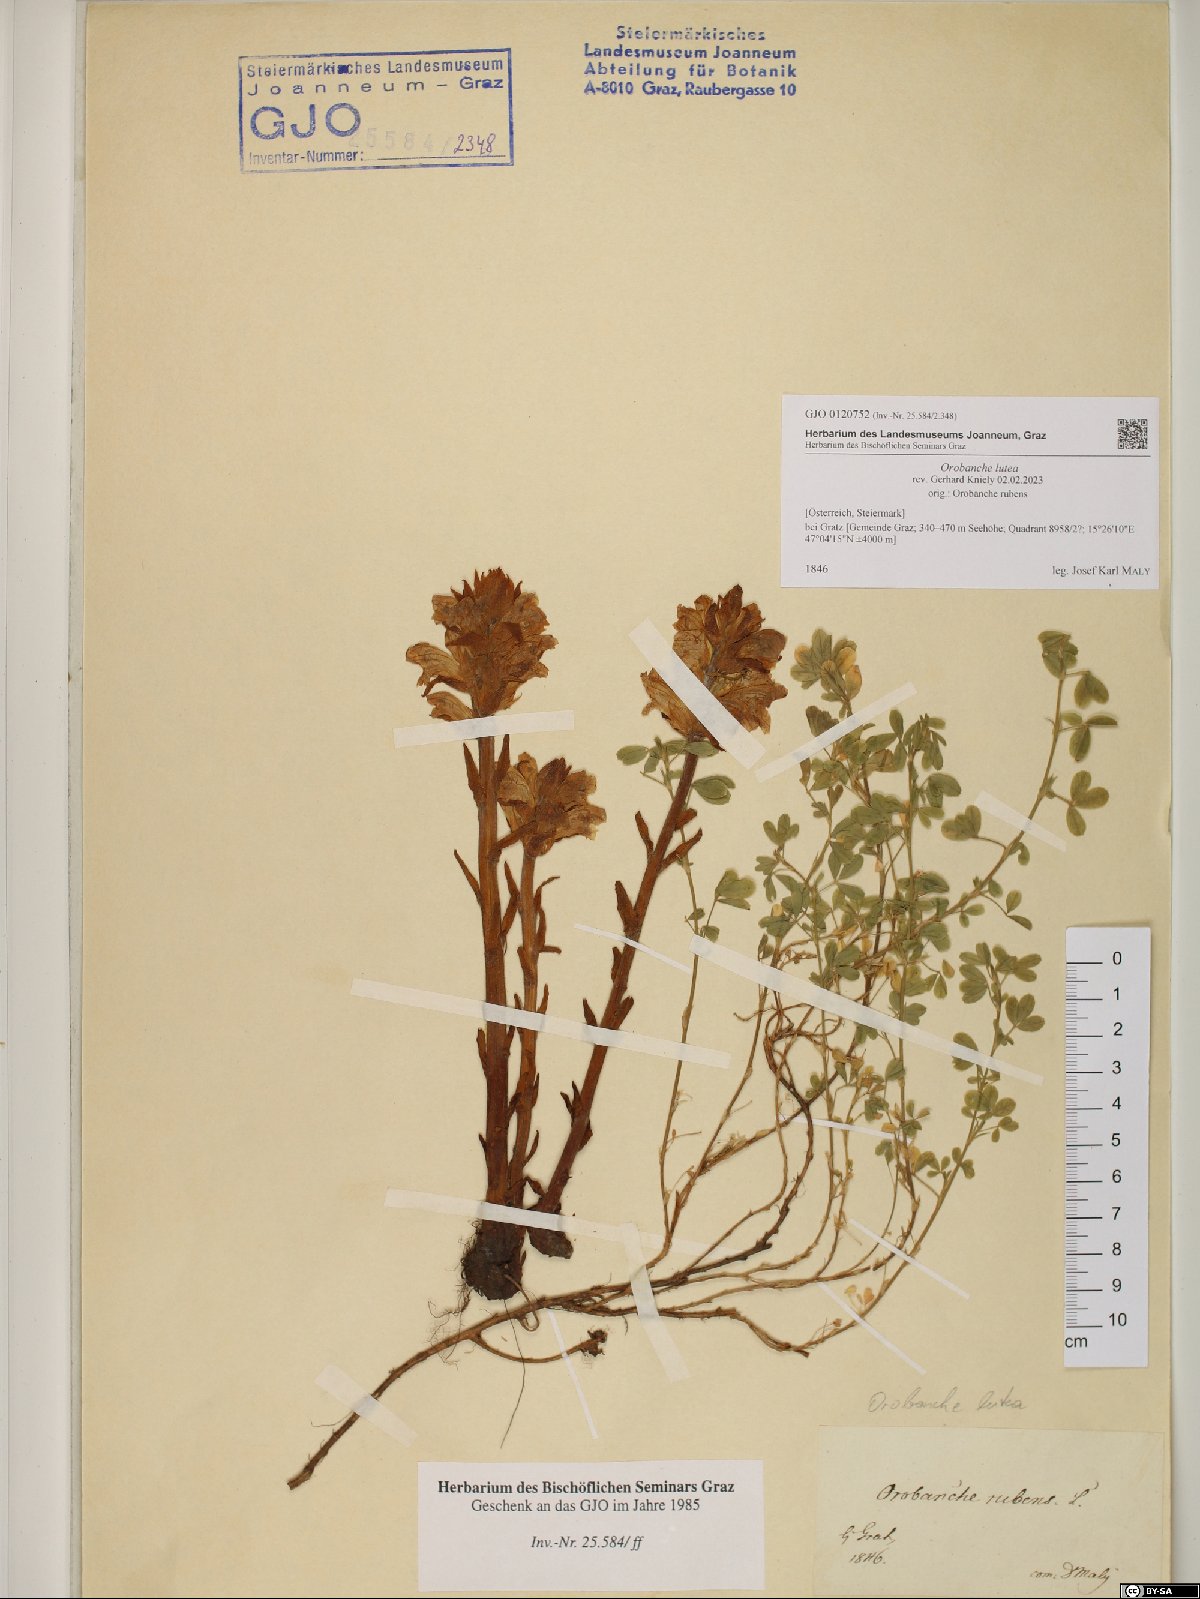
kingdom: Plantae
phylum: Tracheophyta
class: Magnoliopsida
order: Lamiales
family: Orobanchaceae
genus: Orobanche
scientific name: Orobanche lutea
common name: Yellow broomrape
